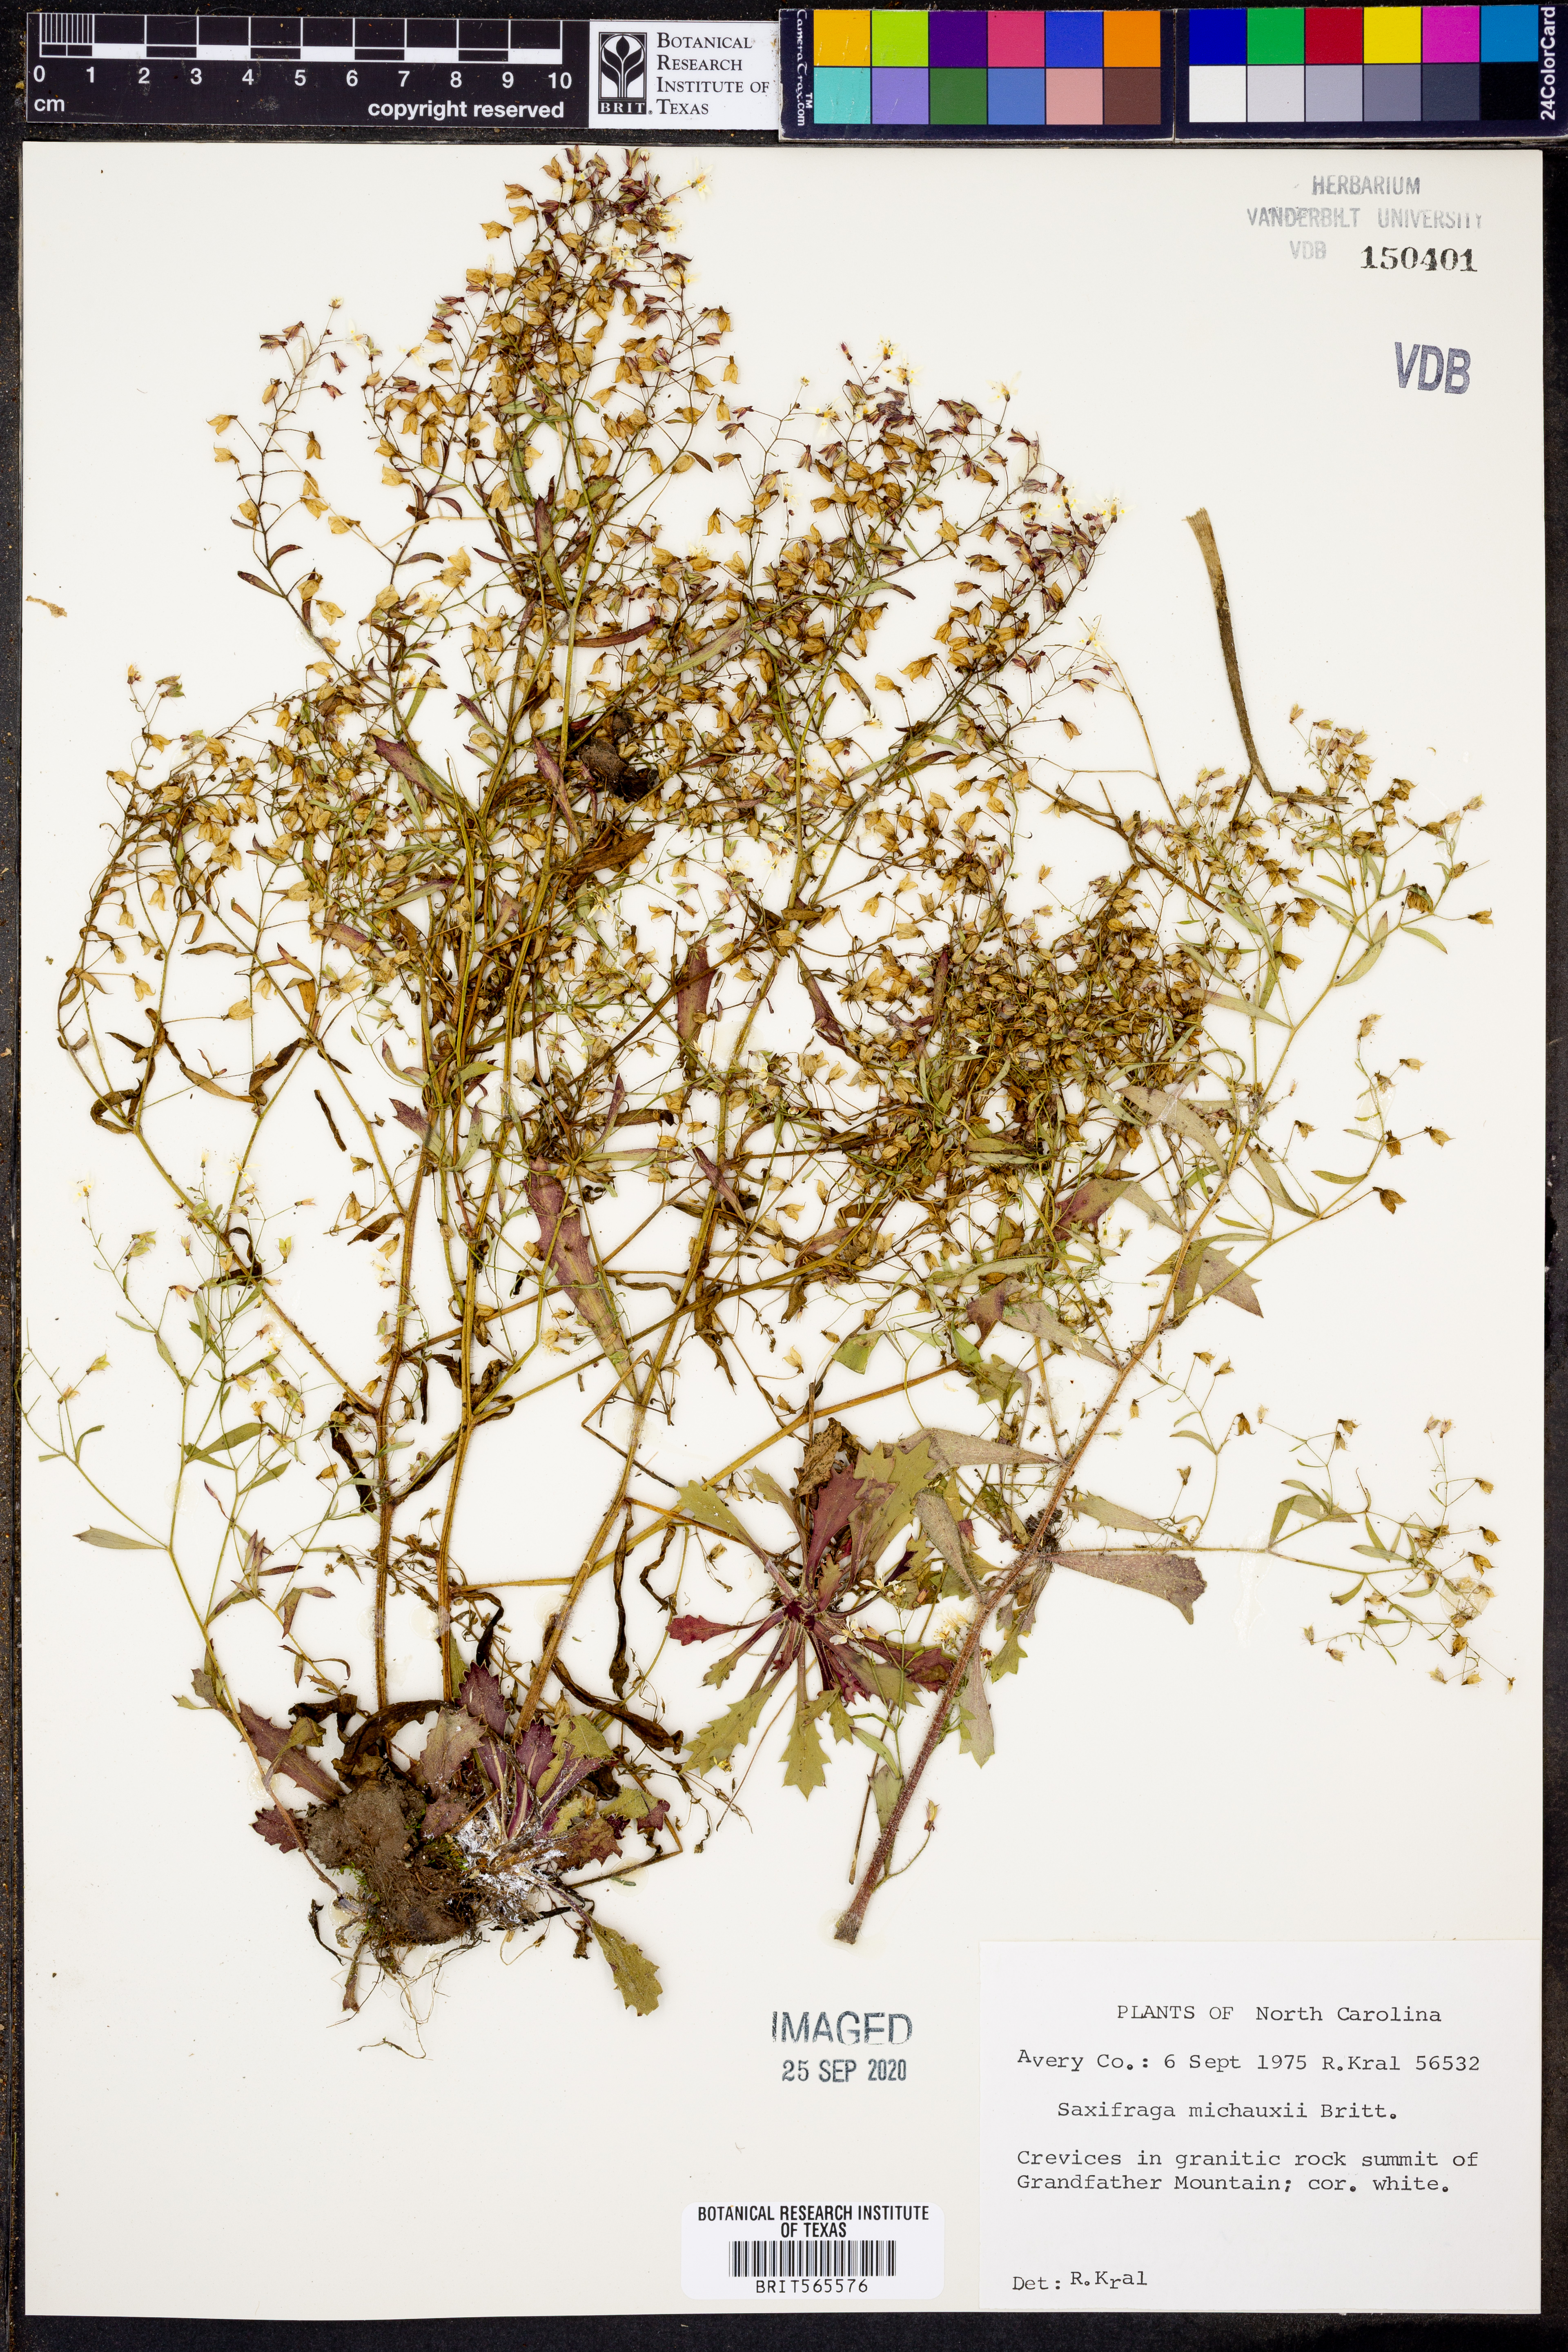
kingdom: Plantae
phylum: Tracheophyta
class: Magnoliopsida
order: Saxifragales
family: Saxifragaceae
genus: Micranthes
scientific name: Micranthes petiolaris
